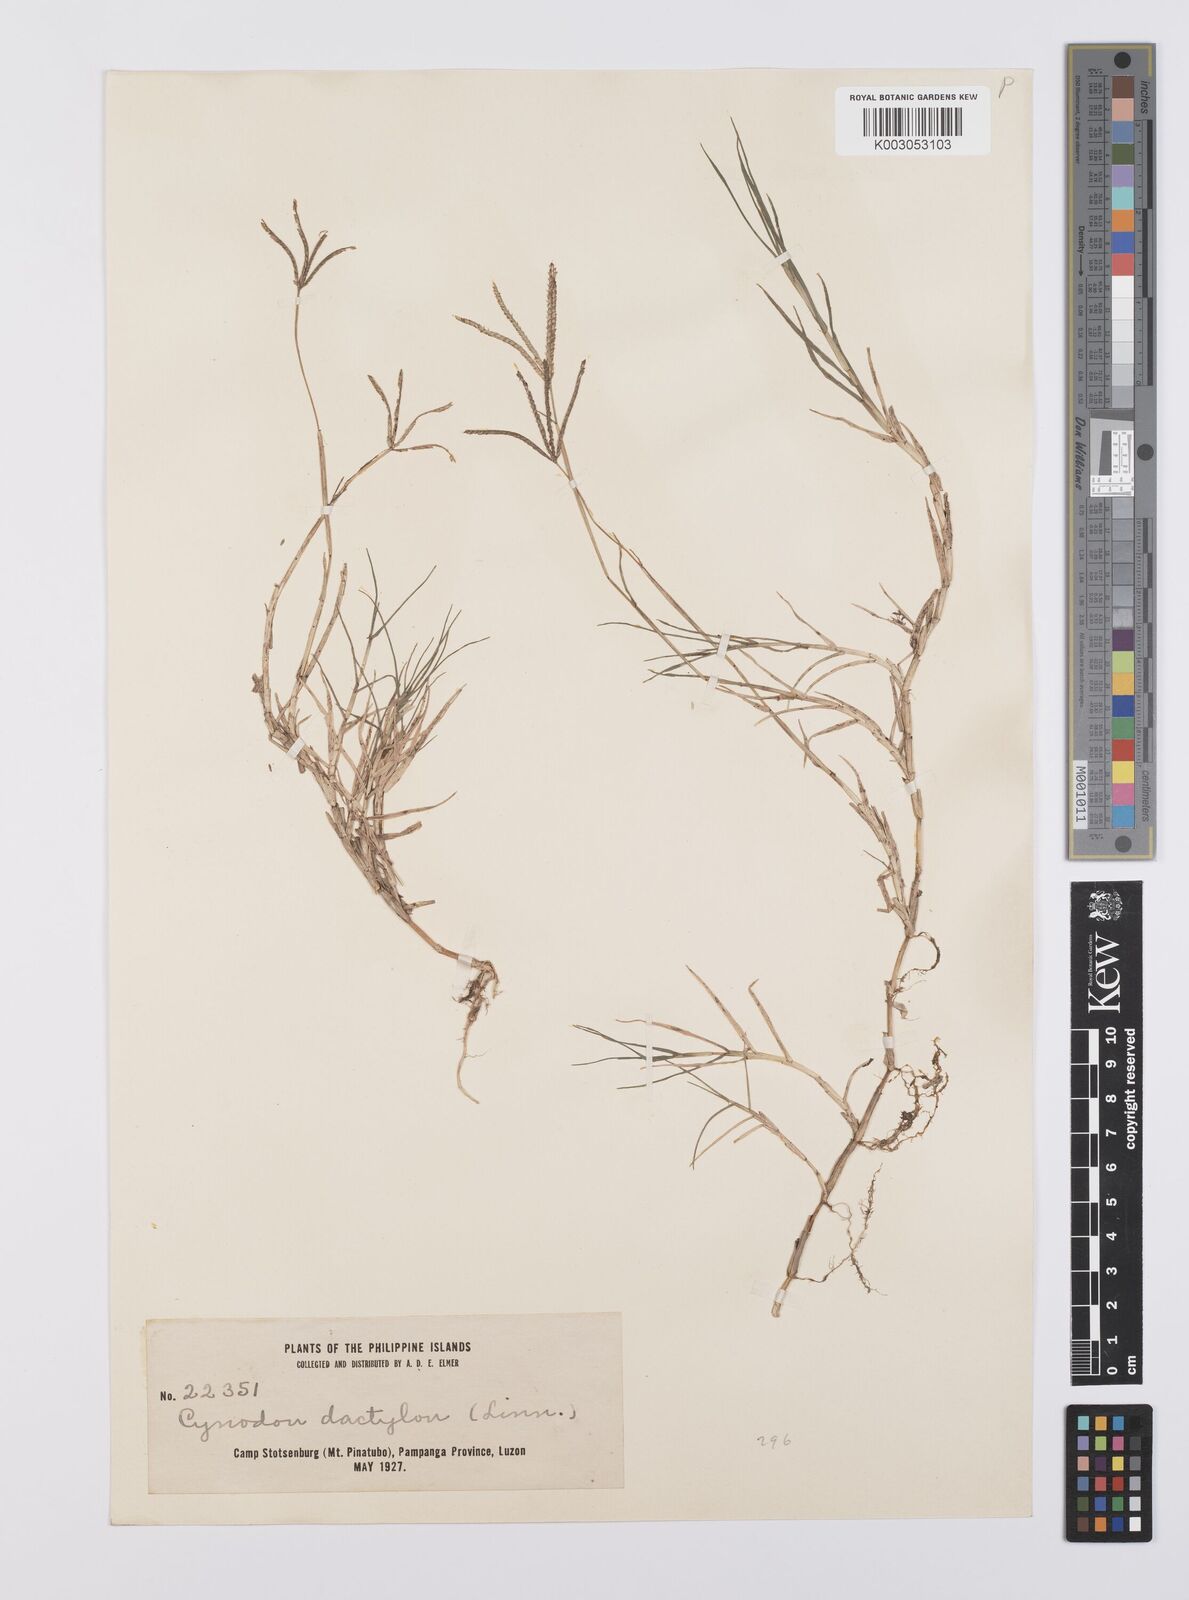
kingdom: Plantae
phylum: Tracheophyta
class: Liliopsida
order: Poales
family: Poaceae
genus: Cynodon
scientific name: Cynodon dactylon
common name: Bermuda grass
